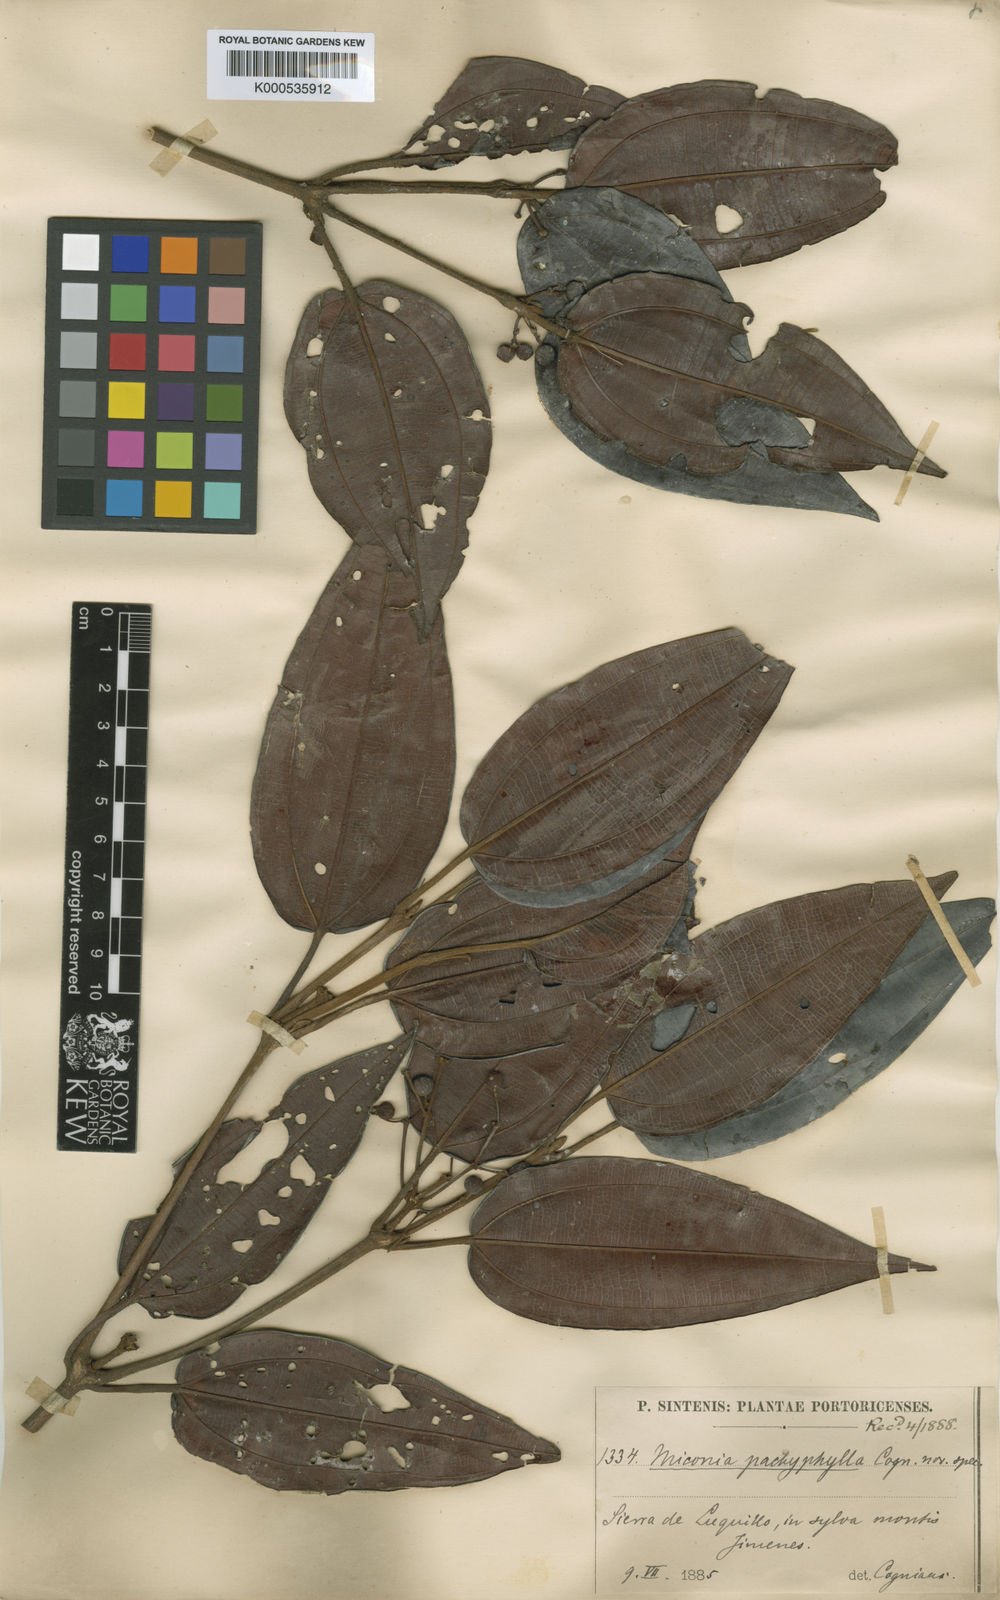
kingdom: Plantae
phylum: Tracheophyta
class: Magnoliopsida
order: Myrtales
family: Melastomataceae
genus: Miconia
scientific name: Miconia pachyphylla
